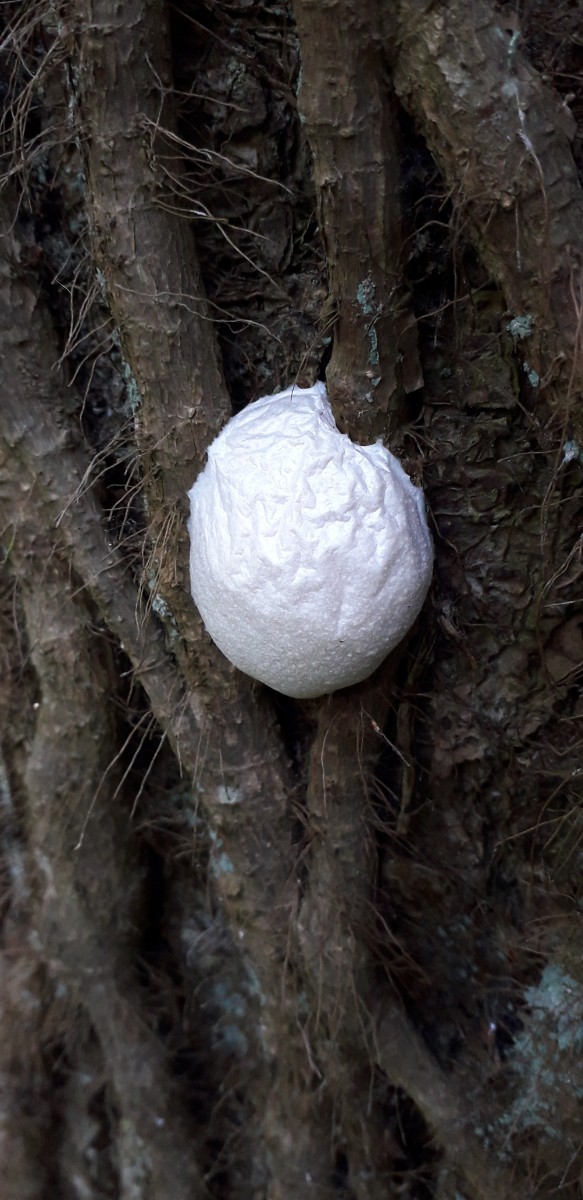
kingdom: Protozoa
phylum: Mycetozoa
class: Myxomycetes
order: Cribrariales
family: Tubiferaceae
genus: Reticularia
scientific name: Reticularia lycoperdon
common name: skinnende støvpude
